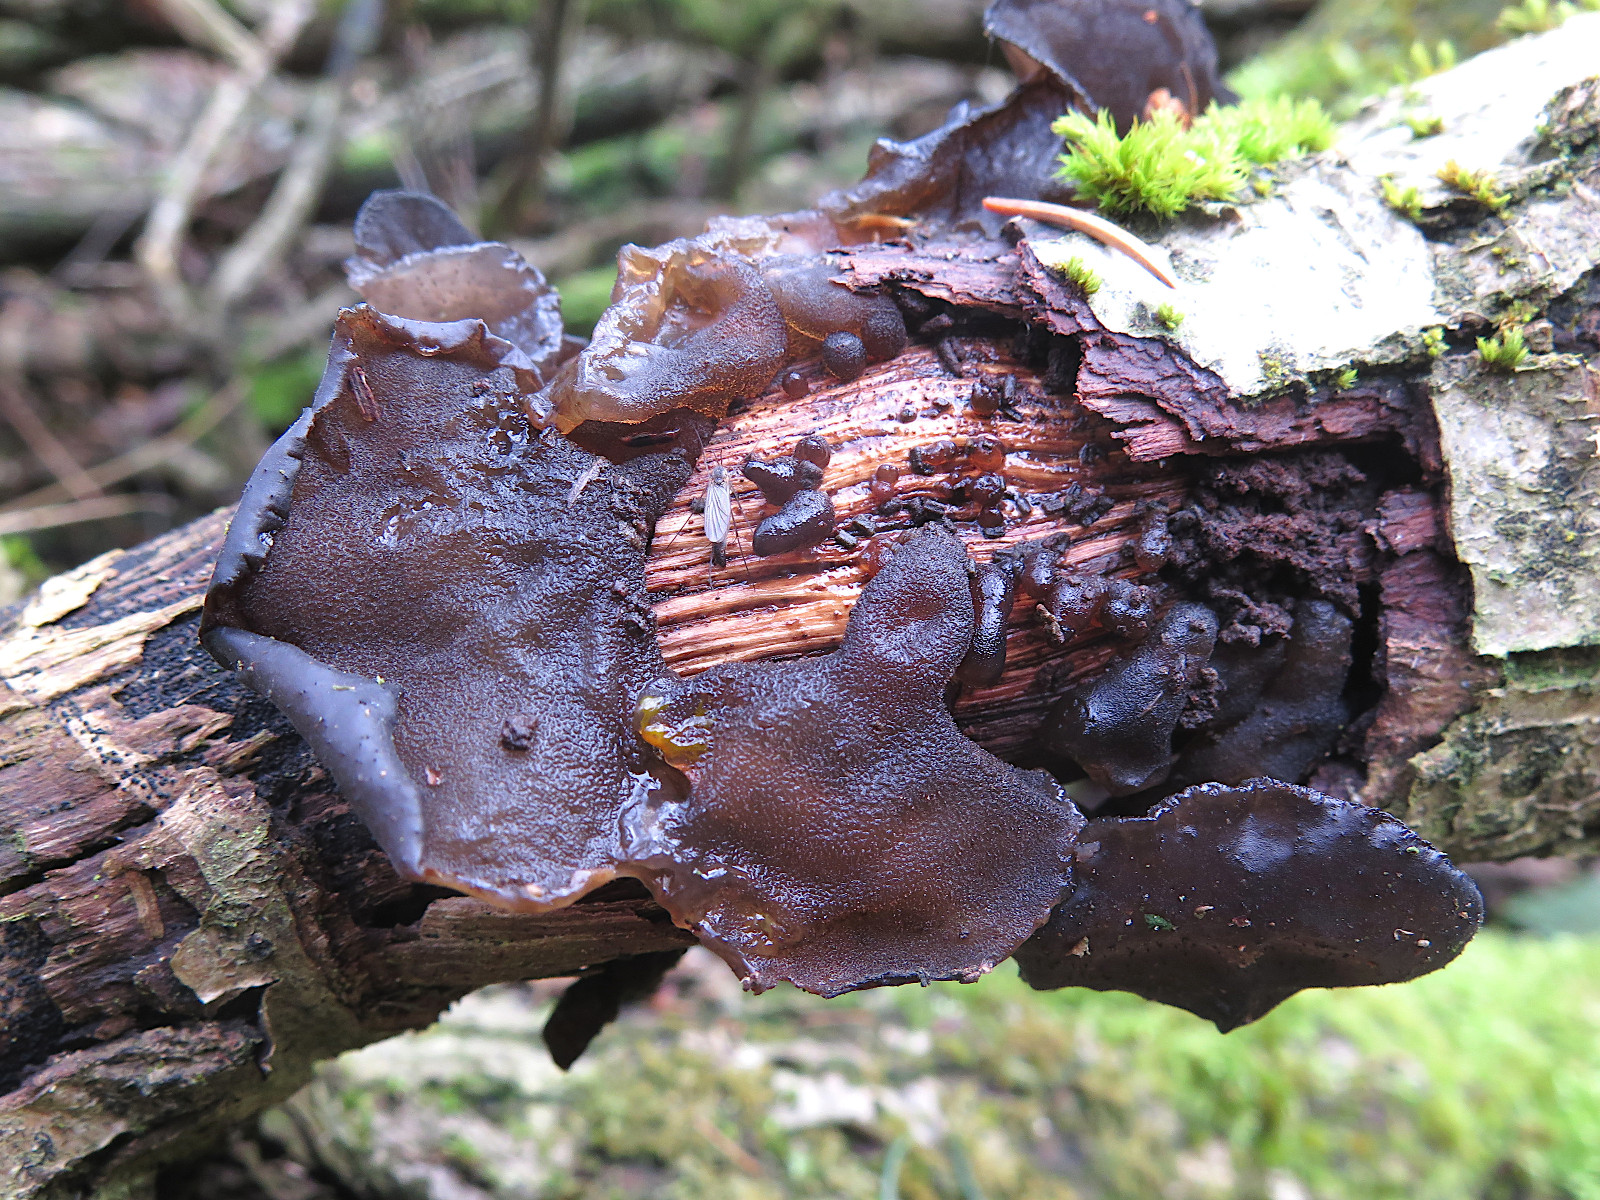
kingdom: Fungi
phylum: Basidiomycota
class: Agaricomycetes
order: Auriculariales
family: Auriculariaceae
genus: Exidia
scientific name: Exidia glandulosa
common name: ege-bævretop
